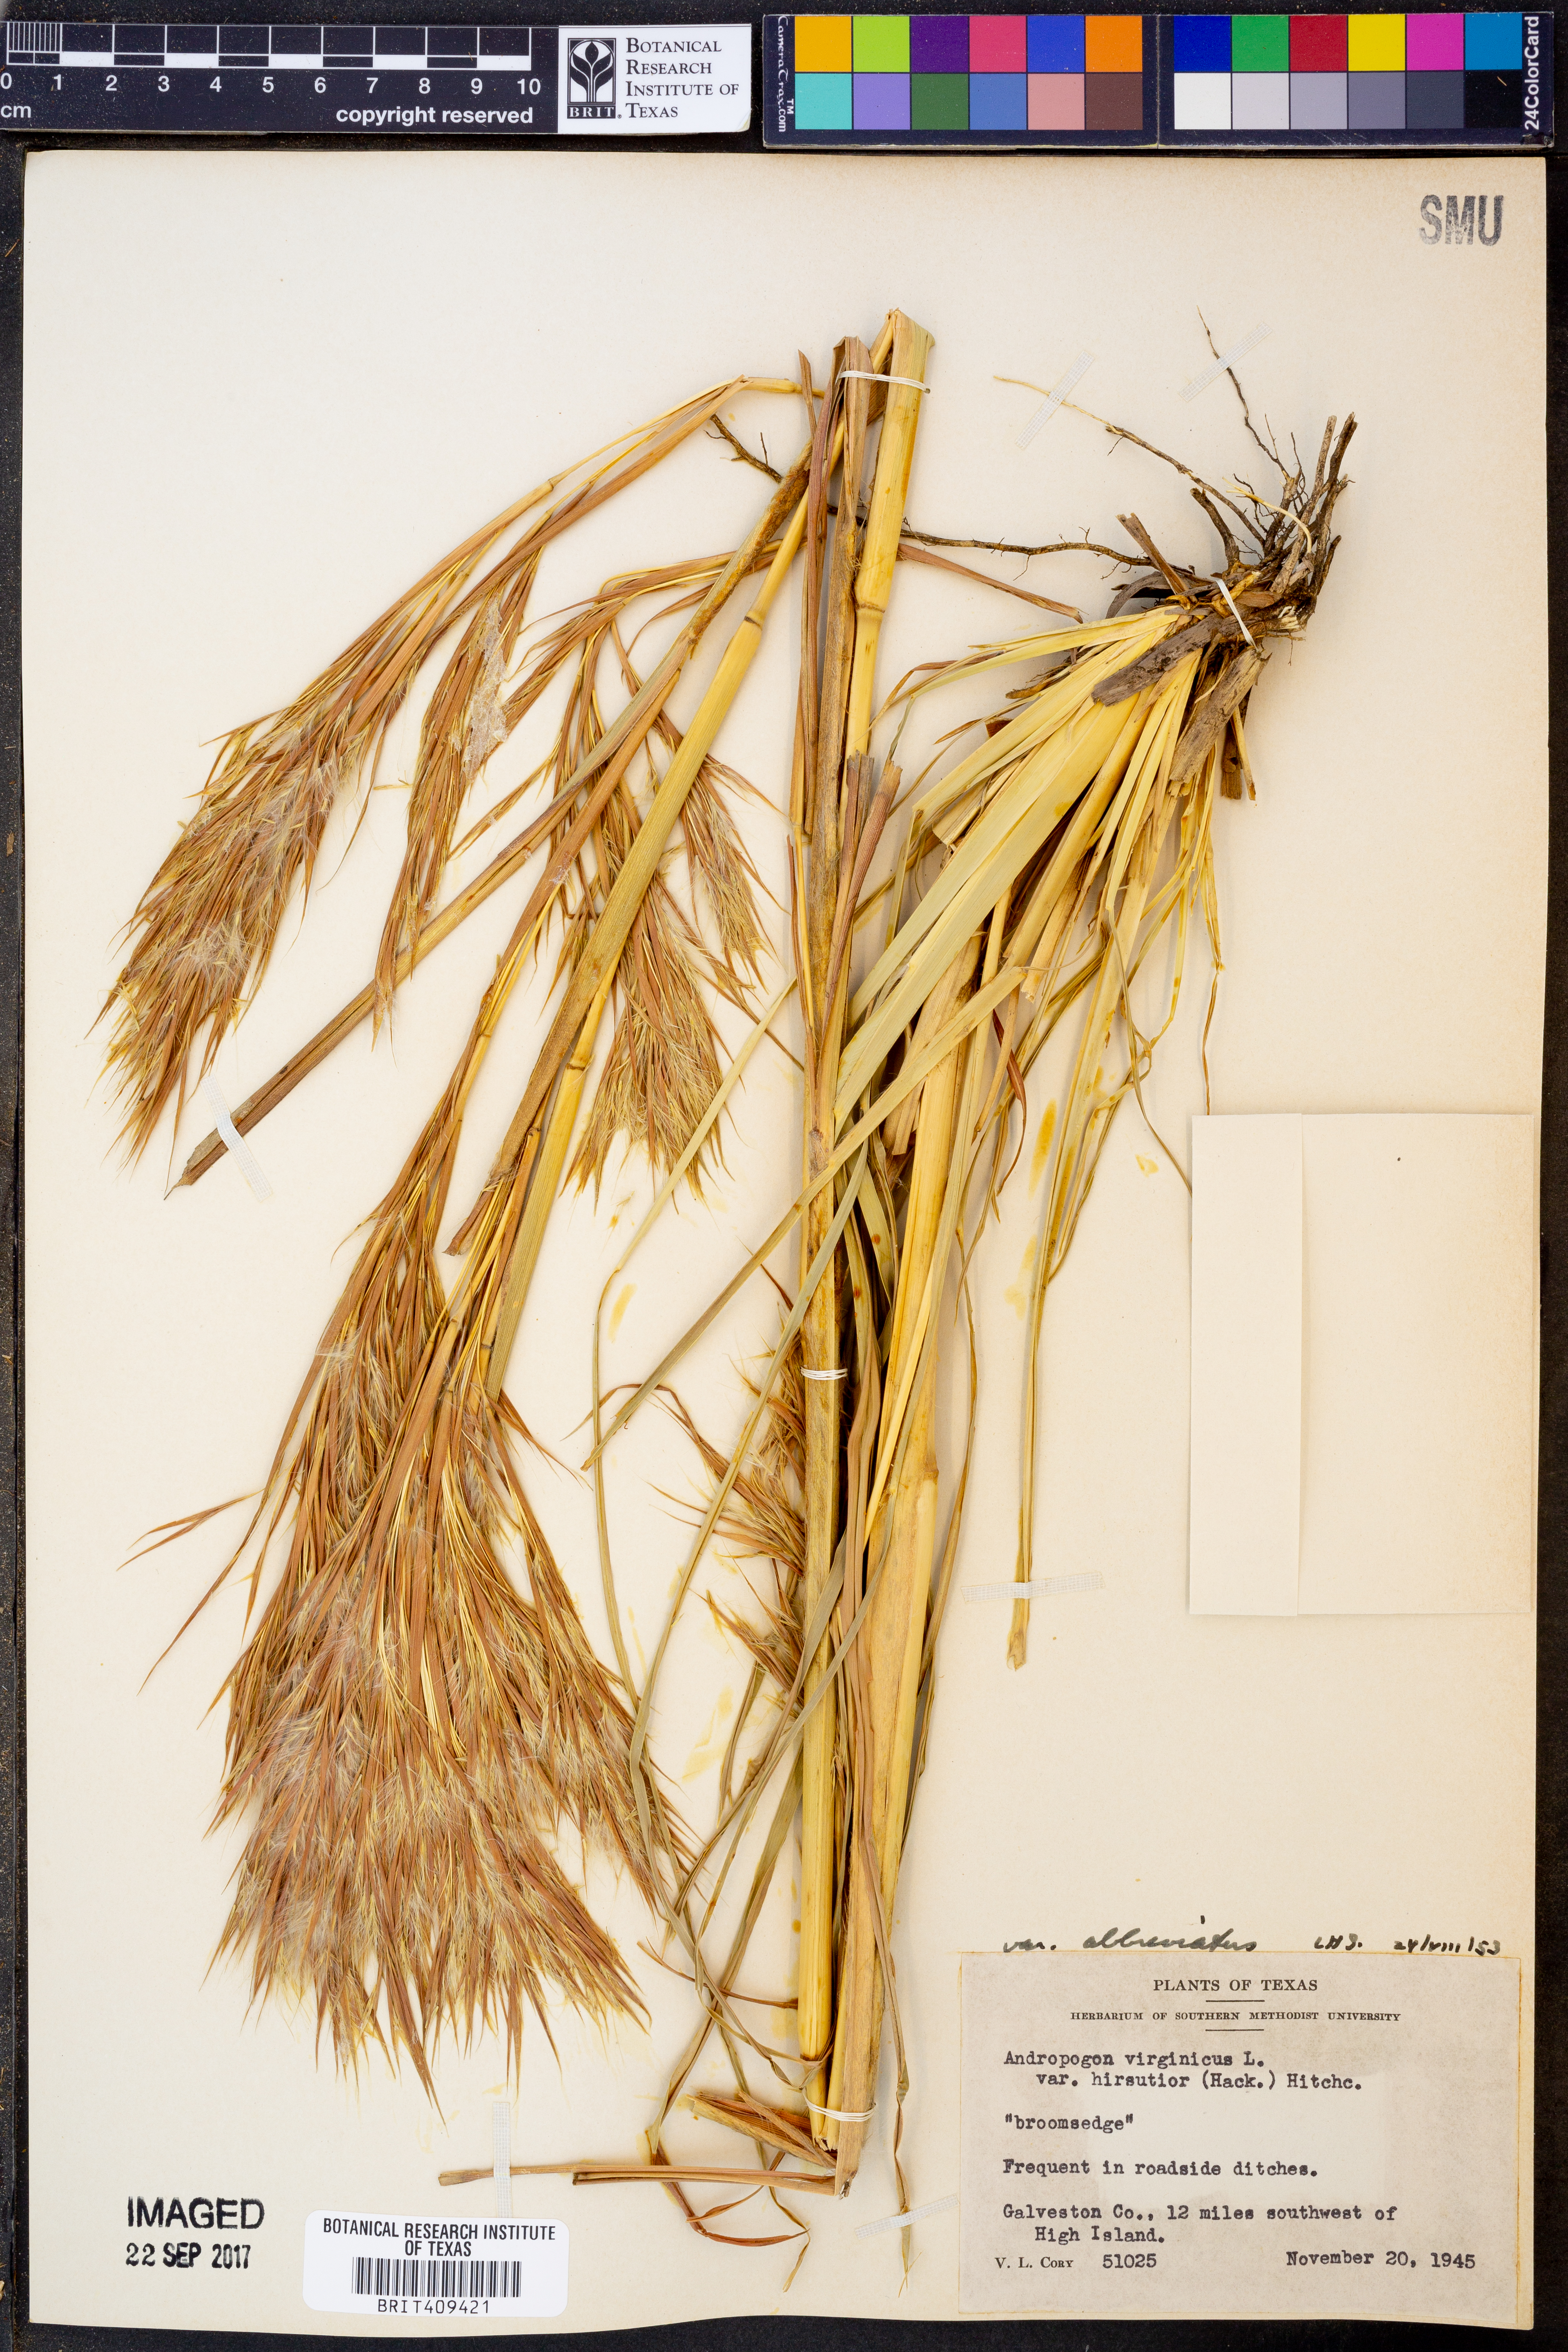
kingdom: Plantae
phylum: Tracheophyta
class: Liliopsida
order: Poales
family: Poaceae
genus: Andropogon
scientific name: Andropogon hirsutior
